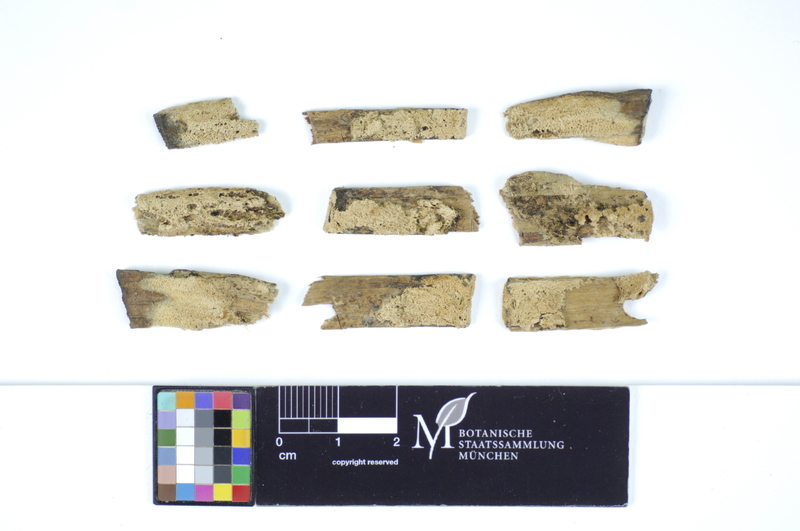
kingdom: Plantae
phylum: Tracheophyta
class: Pinopsida
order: Pinales
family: Pinaceae
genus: Pinus
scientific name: Pinus
